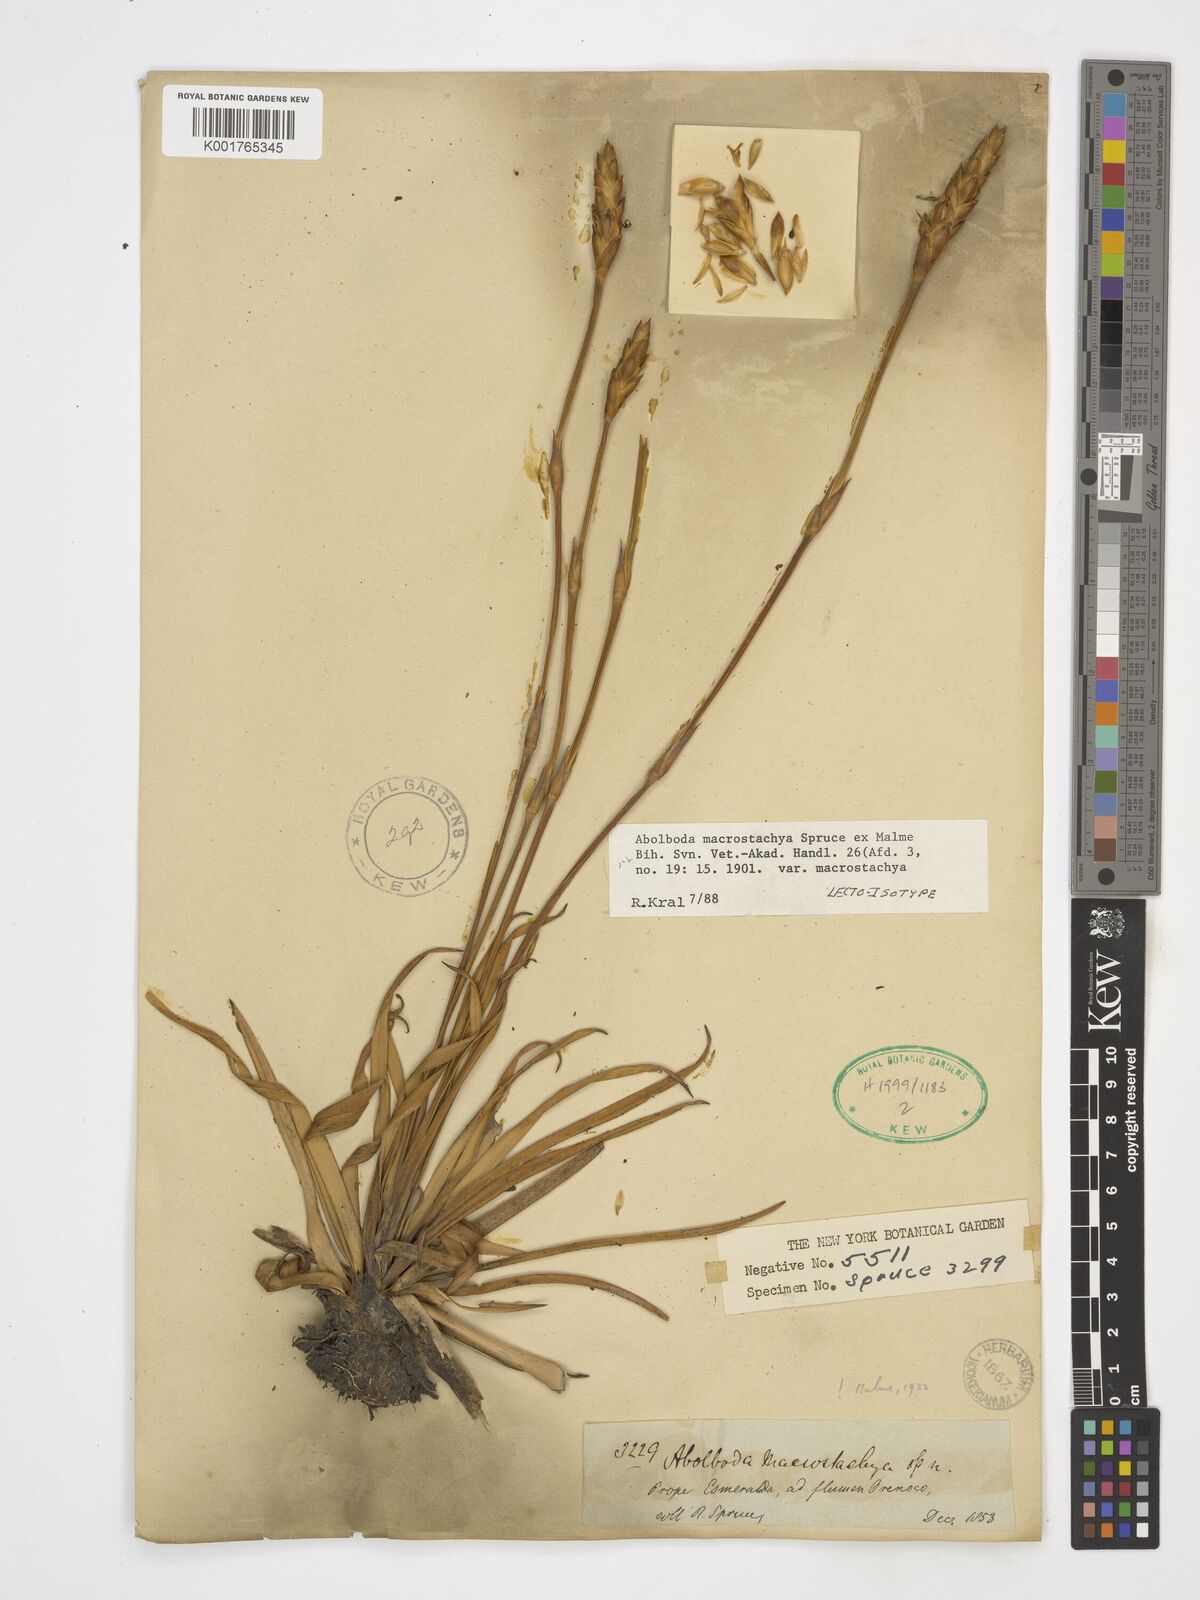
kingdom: Plantae
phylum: Tracheophyta
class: Liliopsida
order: Poales
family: Xyridaceae
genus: Abolboda
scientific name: Abolboda macrostachya
